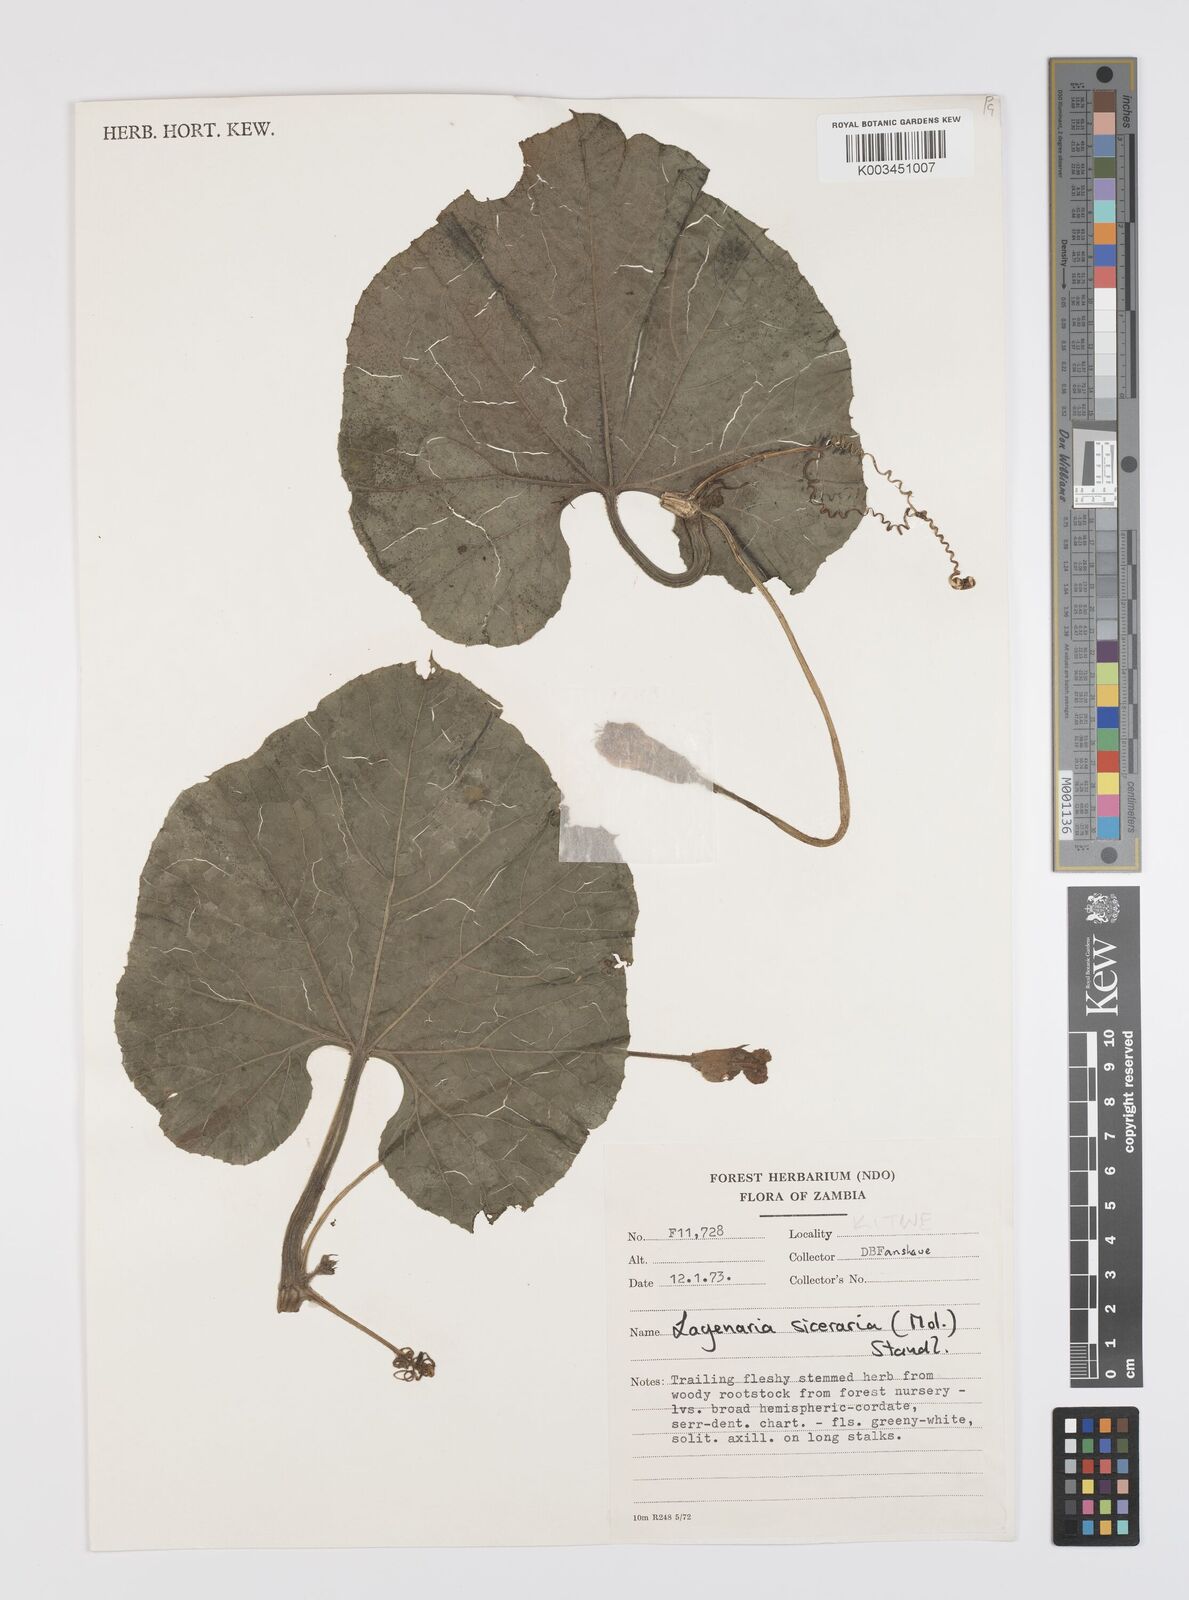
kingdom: Plantae
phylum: Tracheophyta
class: Magnoliopsida
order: Cucurbitales
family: Cucurbitaceae
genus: Lagenaria
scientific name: Lagenaria siceraria
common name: Bottle gourd
